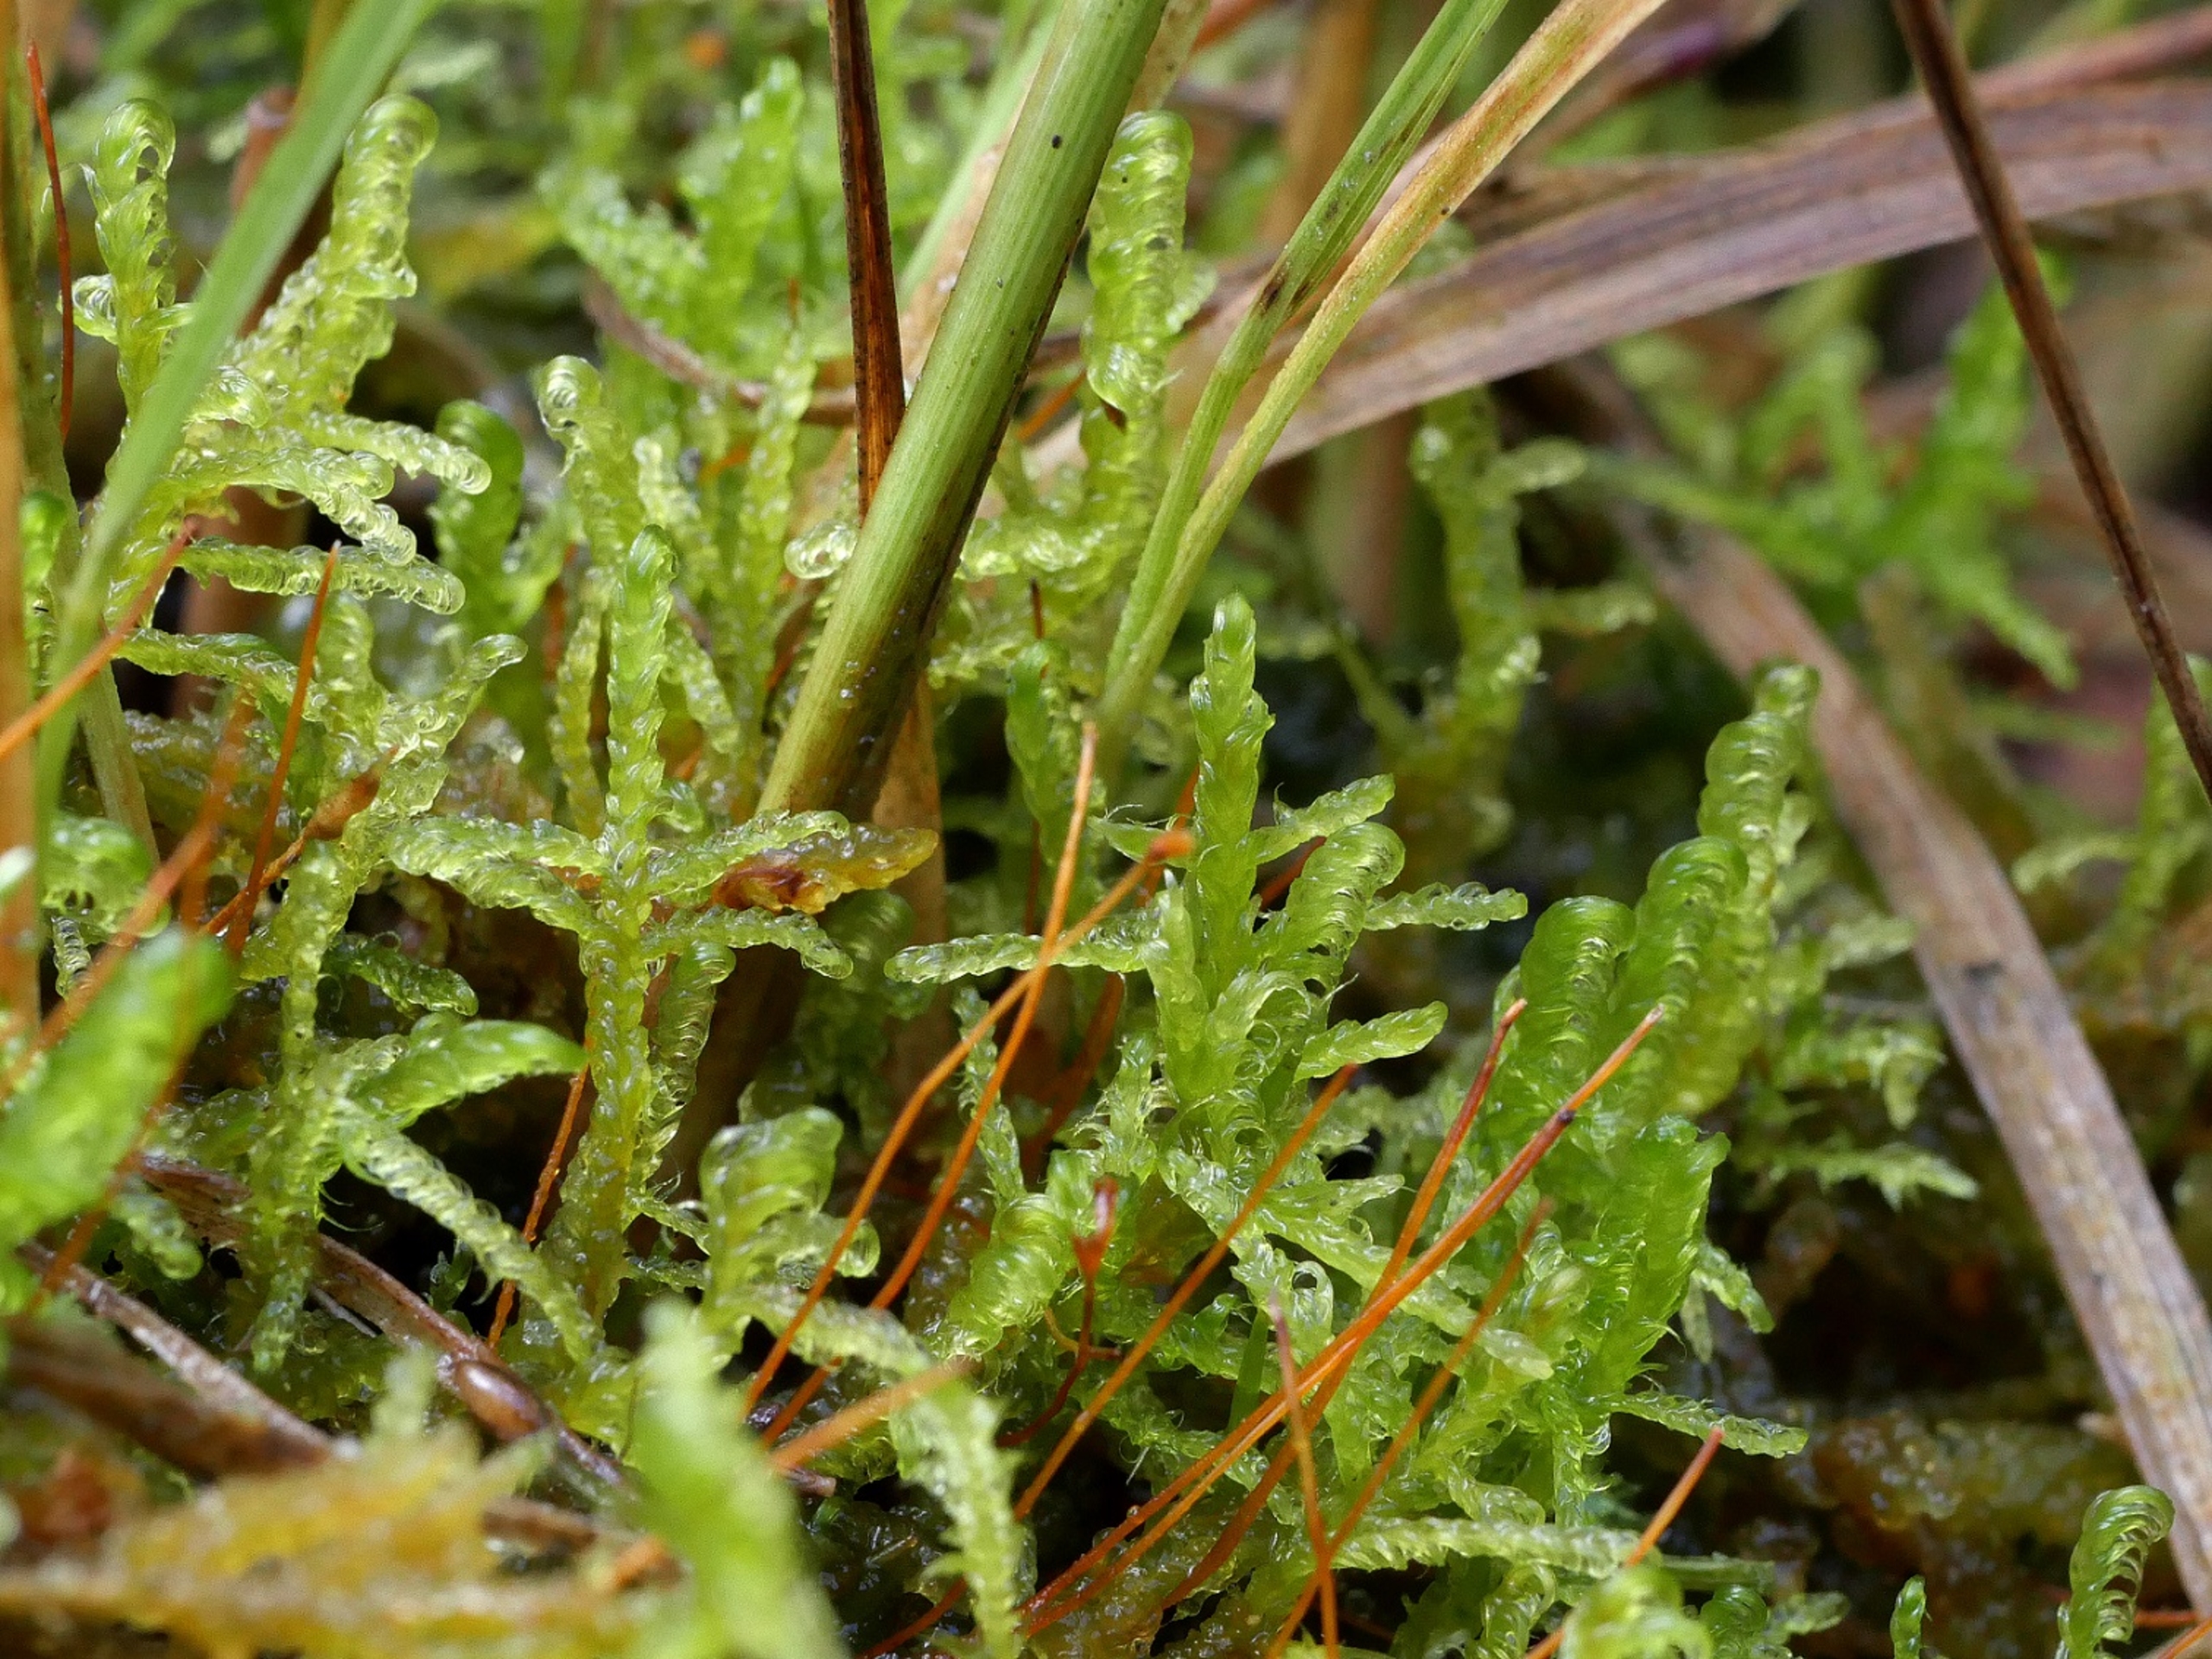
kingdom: Plantae
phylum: Bryophyta
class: Bryopsida
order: Hypnales
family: Scorpidiaceae
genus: Sanionia
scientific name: Sanionia uncinata
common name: Stribet krogblad
